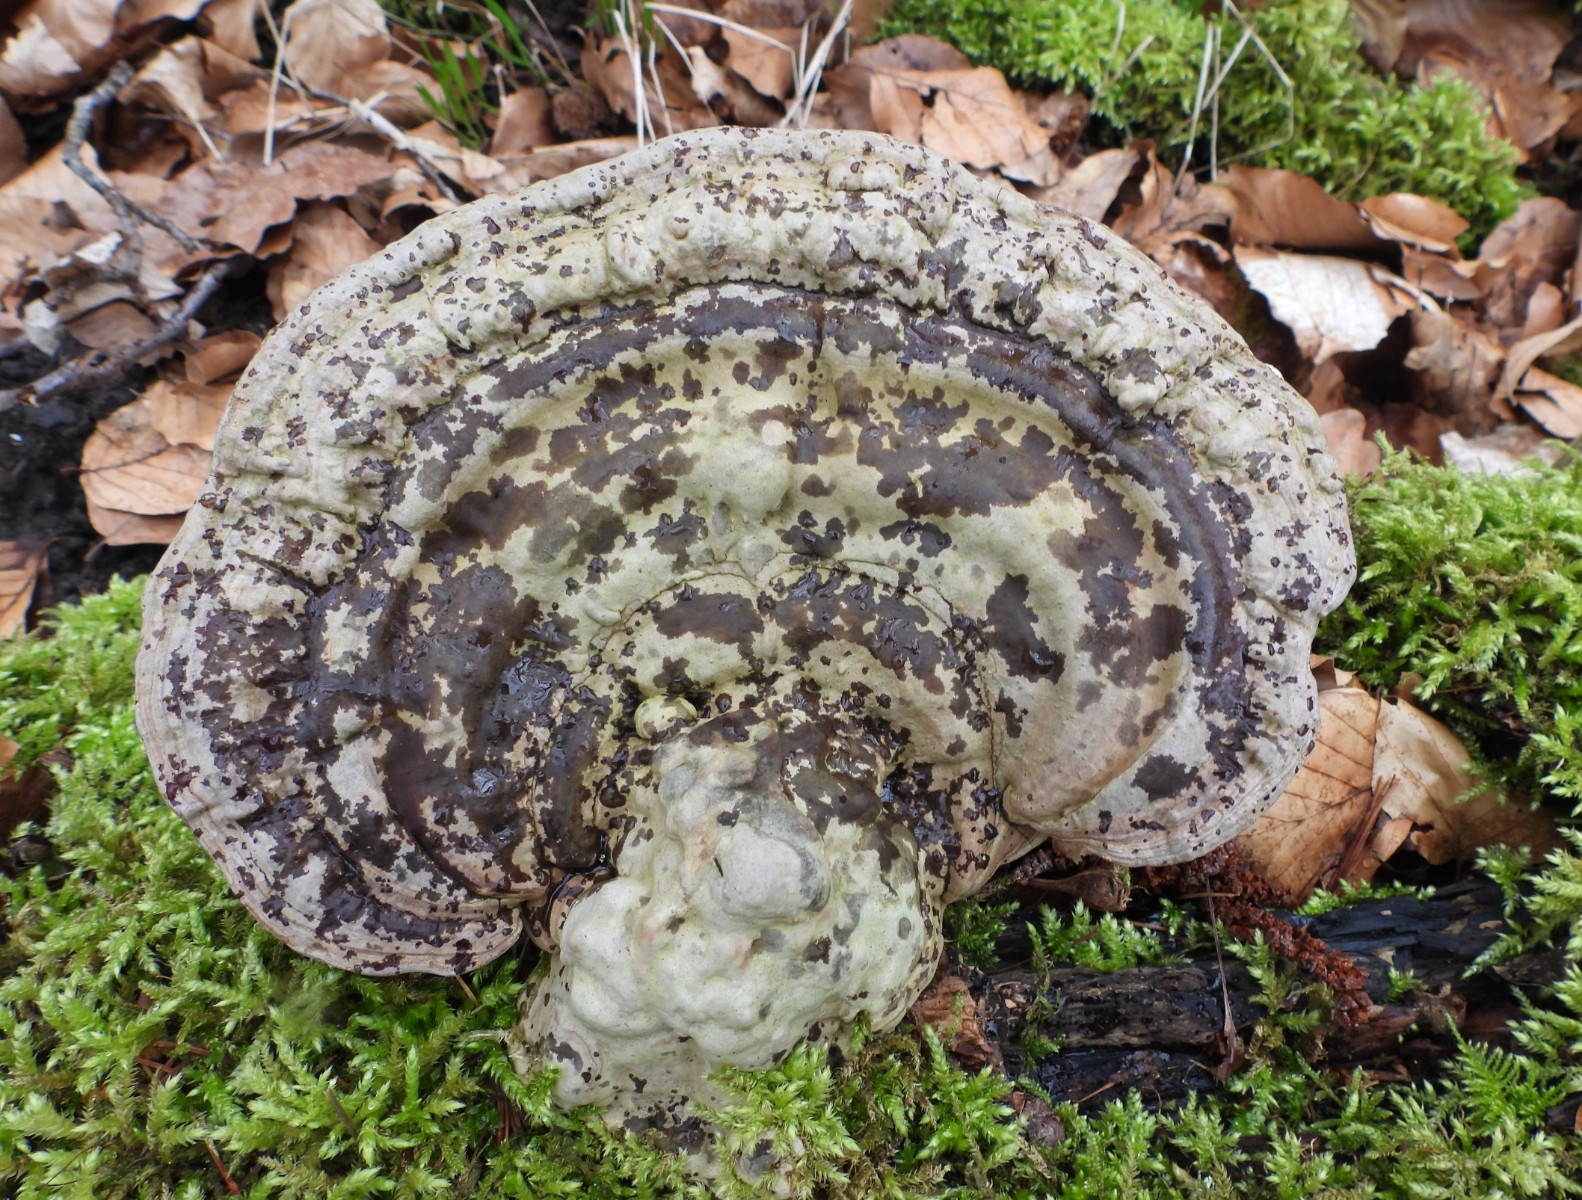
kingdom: Fungi
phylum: Basidiomycota
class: Agaricomycetes
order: Polyporales
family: Polyporaceae
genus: Ganoderma
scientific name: Ganoderma applanatum
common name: flad lakporesvamp
